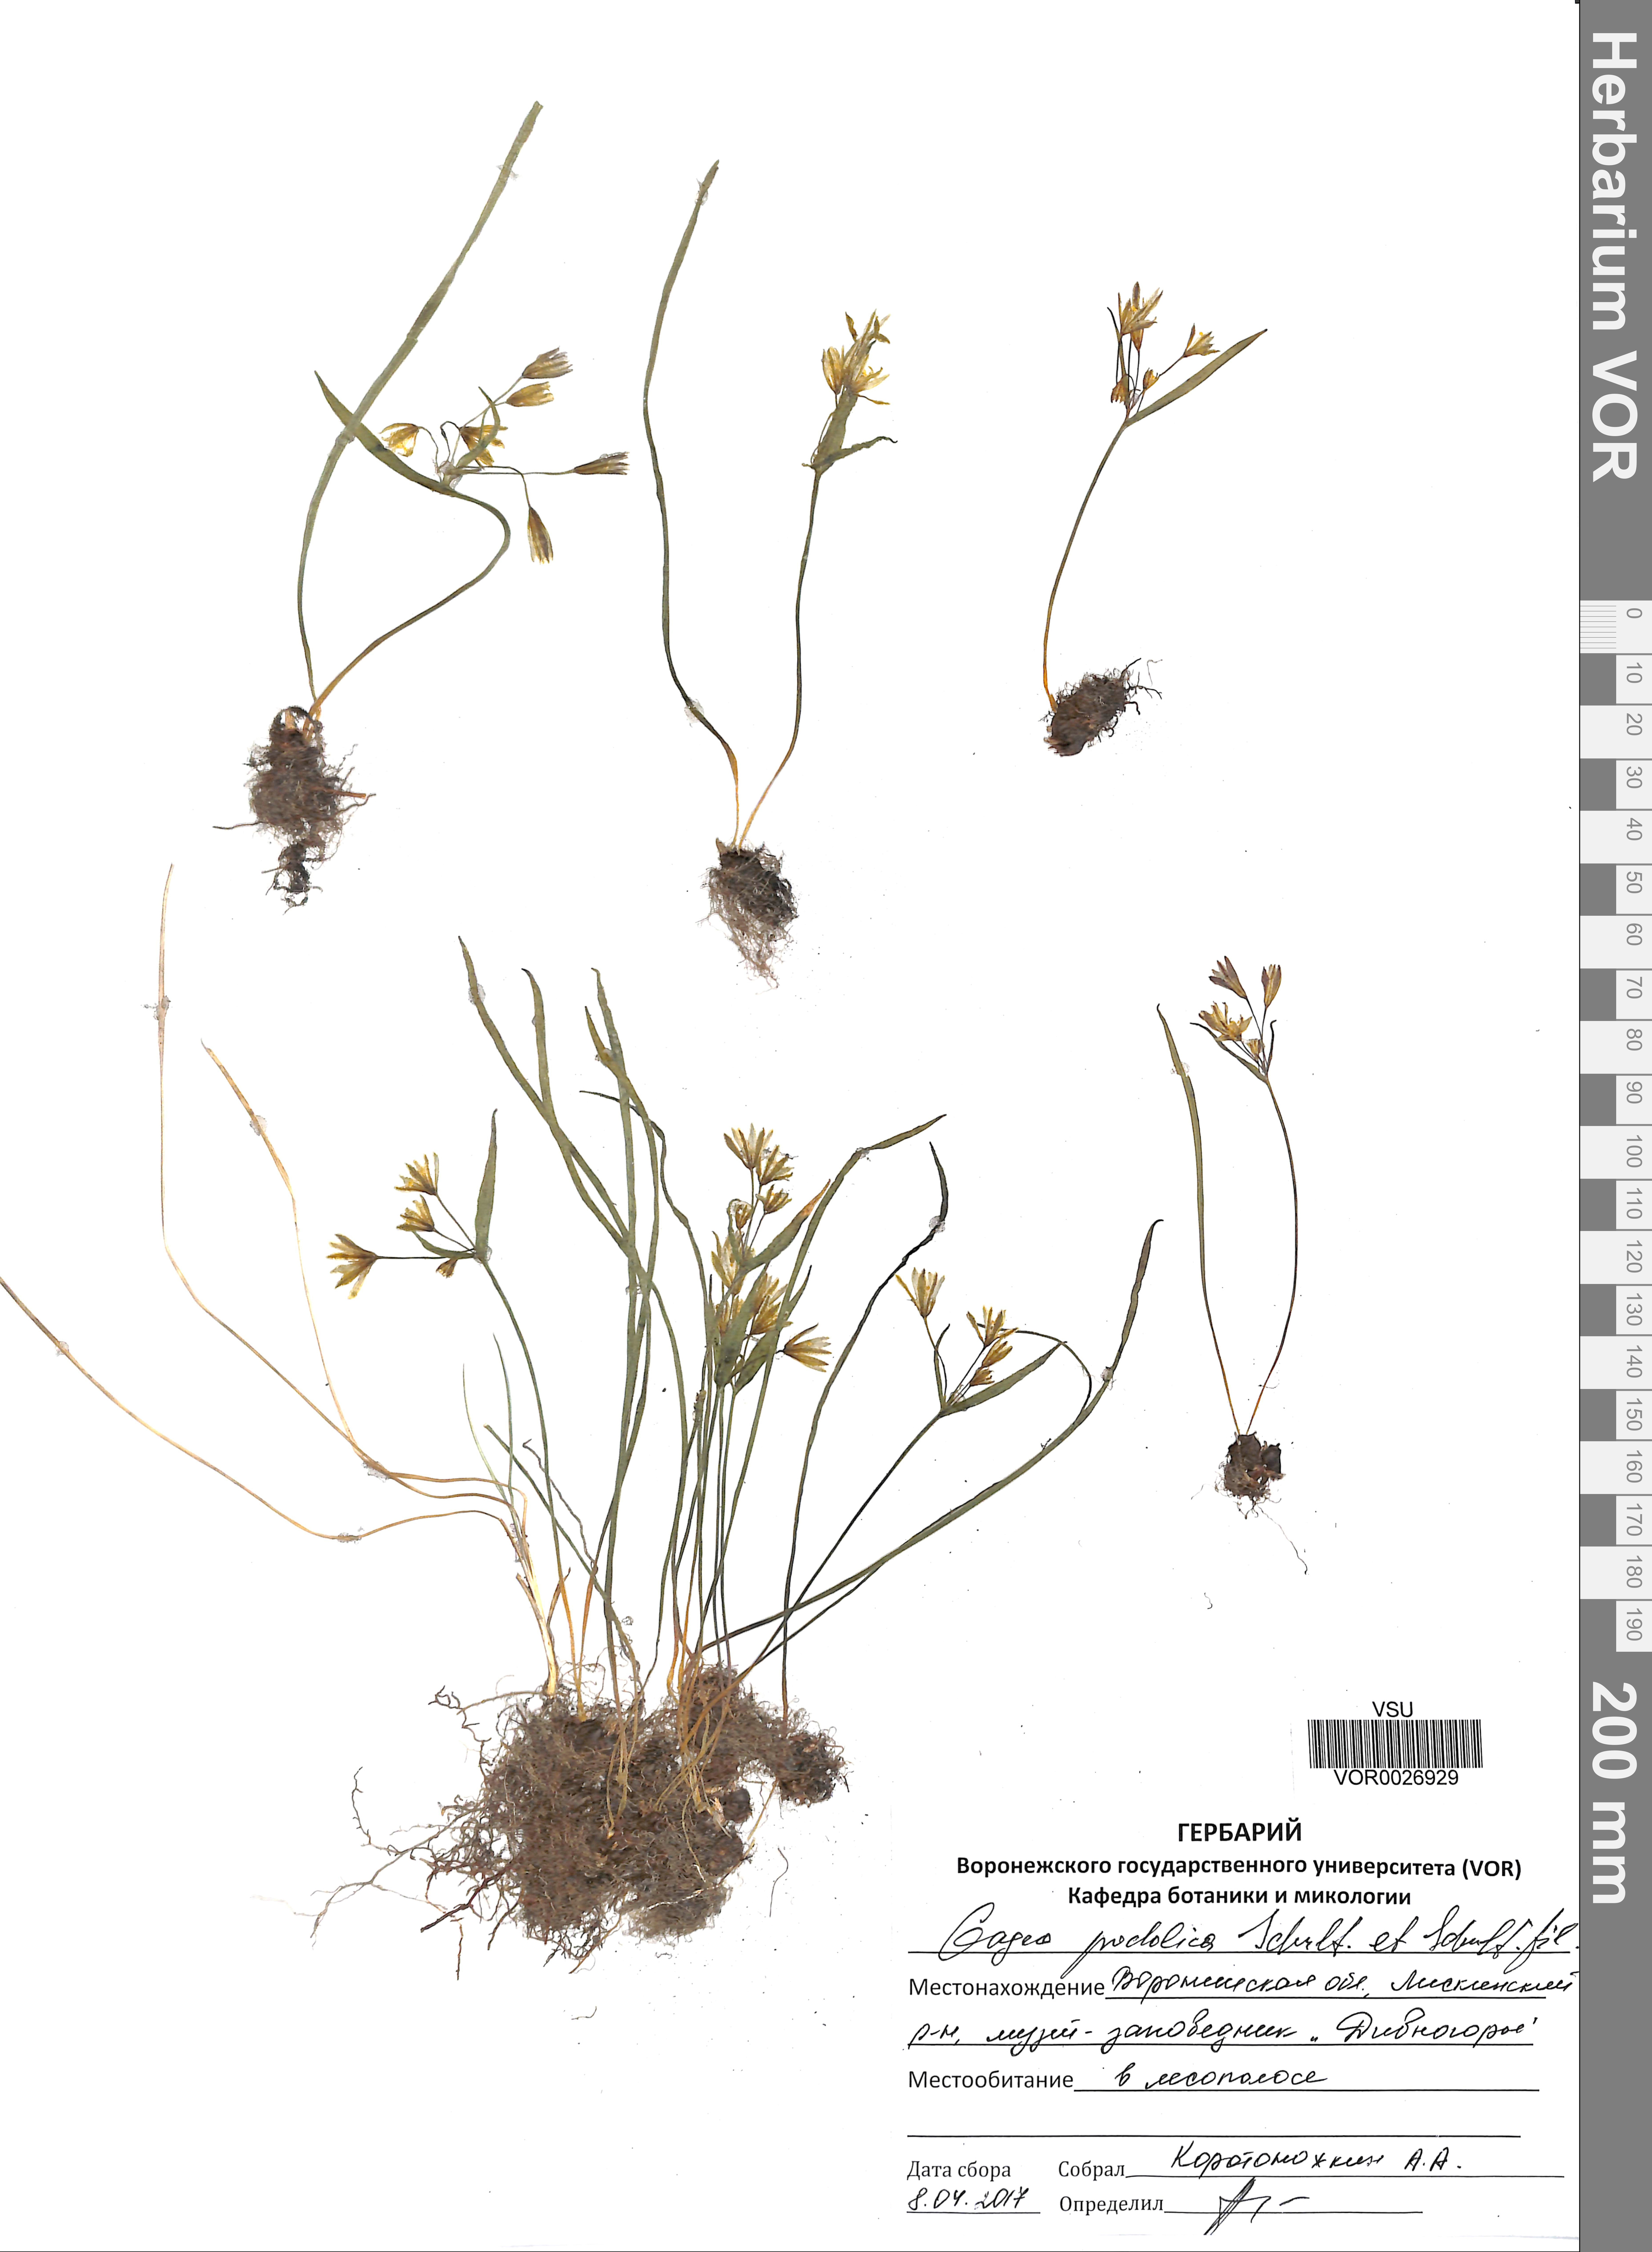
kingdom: Plantae
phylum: Tracheophyta
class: Liliopsida
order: Liliales
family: Liliaceae
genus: Gagea
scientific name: Gagea podolica
